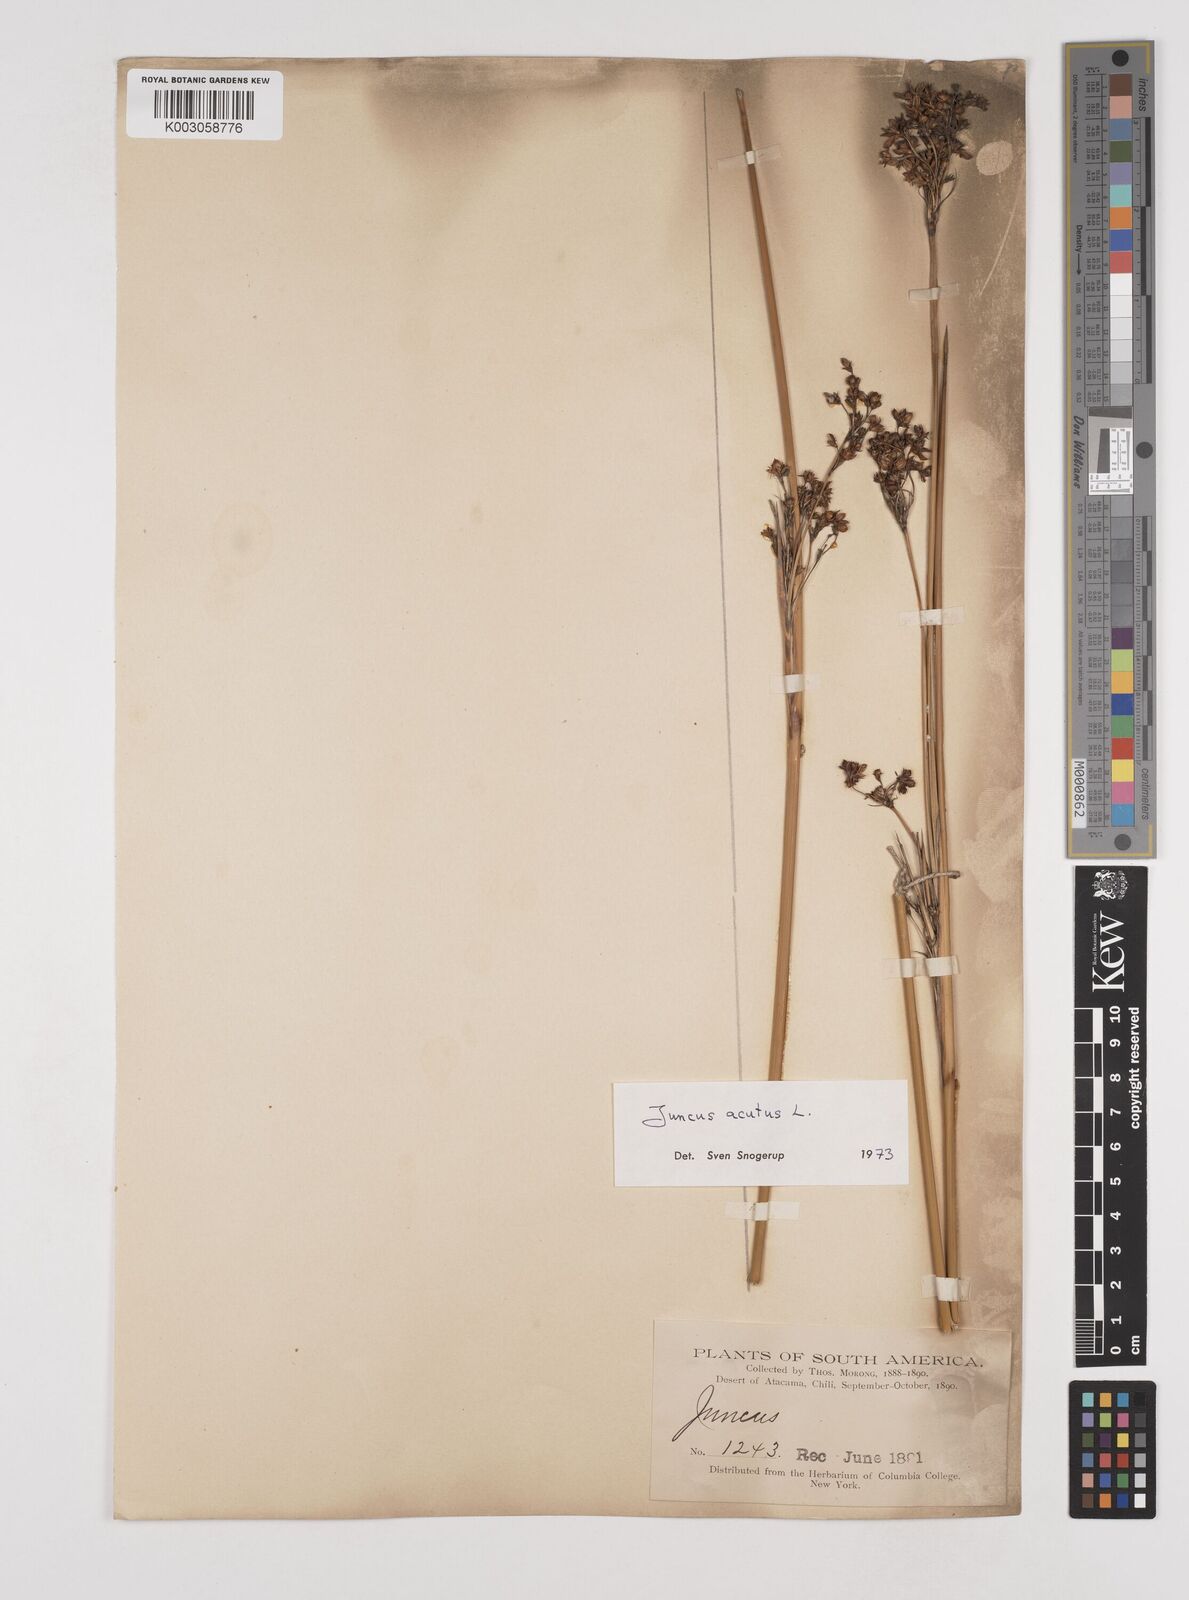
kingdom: Plantae
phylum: Tracheophyta
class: Liliopsida
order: Poales
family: Juncaceae
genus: Juncus
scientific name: Juncus acutus
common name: Sharp rush
